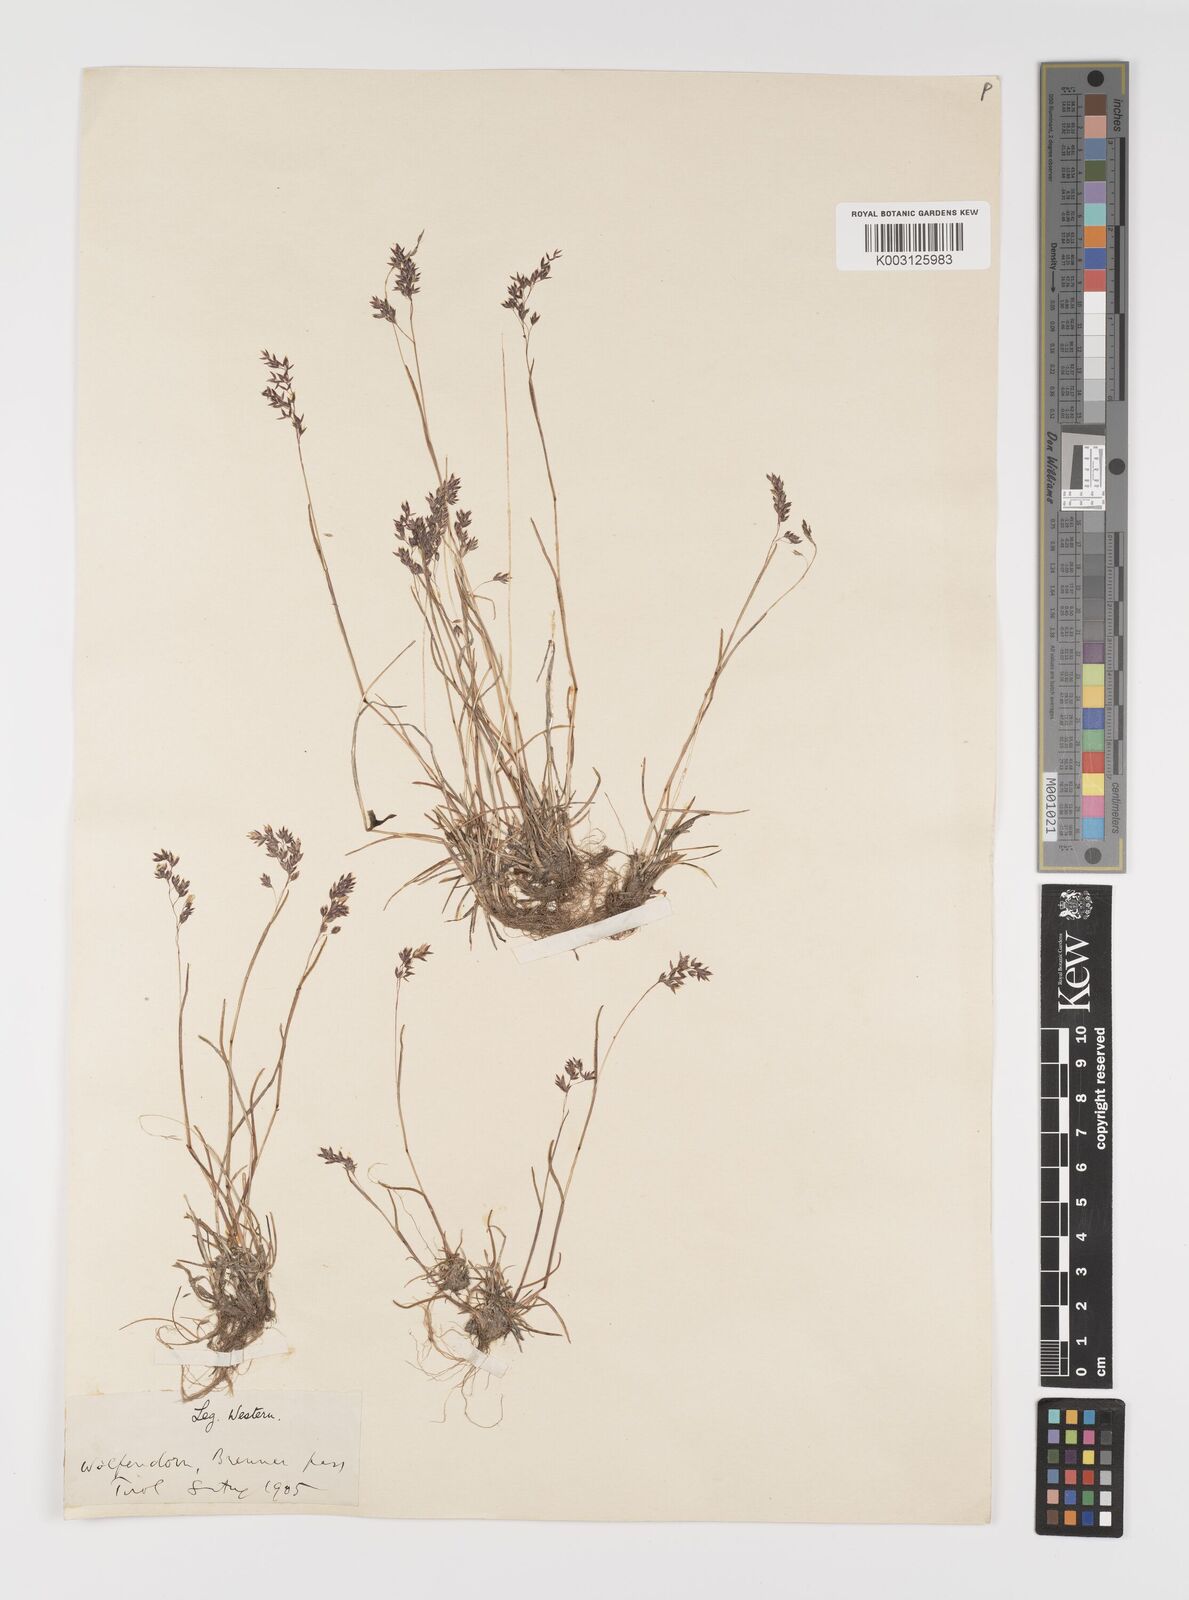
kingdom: Plantae
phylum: Tracheophyta
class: Liliopsida
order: Poales
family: Poaceae
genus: Poa
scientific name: Poa minor
